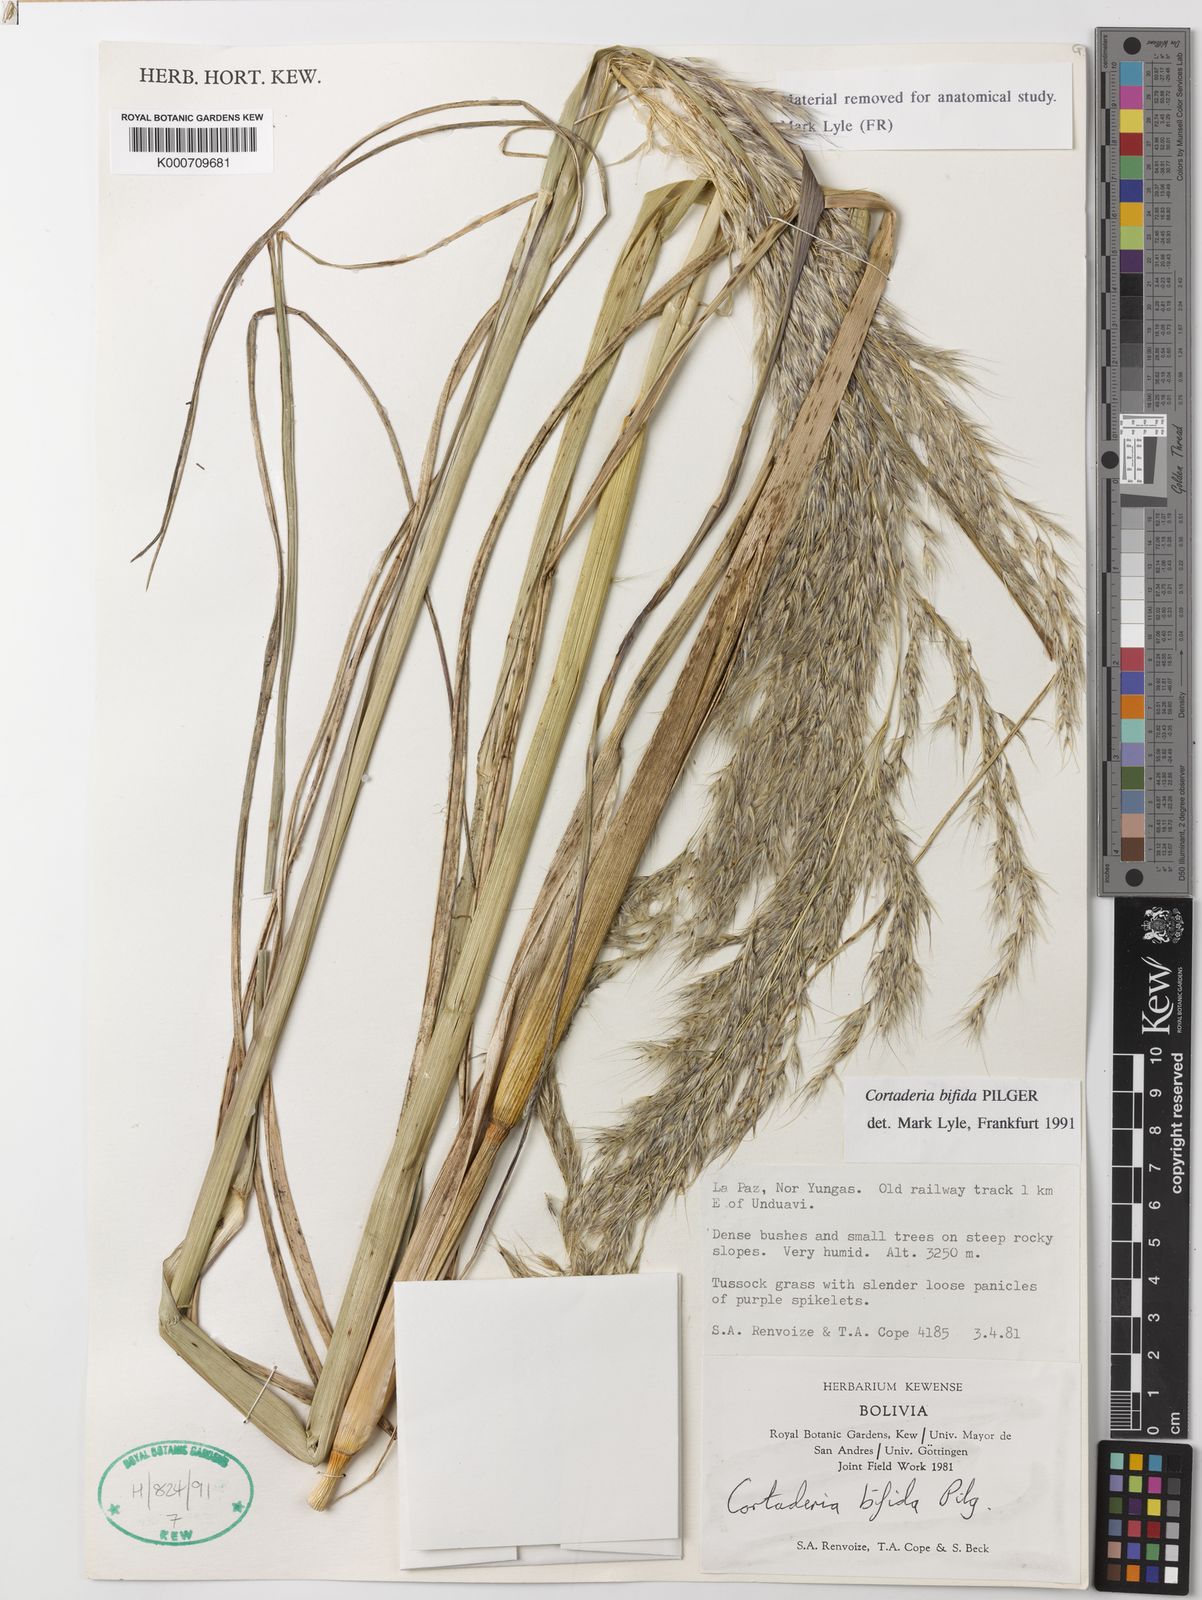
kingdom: Plantae
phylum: Tracheophyta
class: Liliopsida
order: Poales
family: Poaceae
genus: Cortaderia
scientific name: Cortaderia bifida
